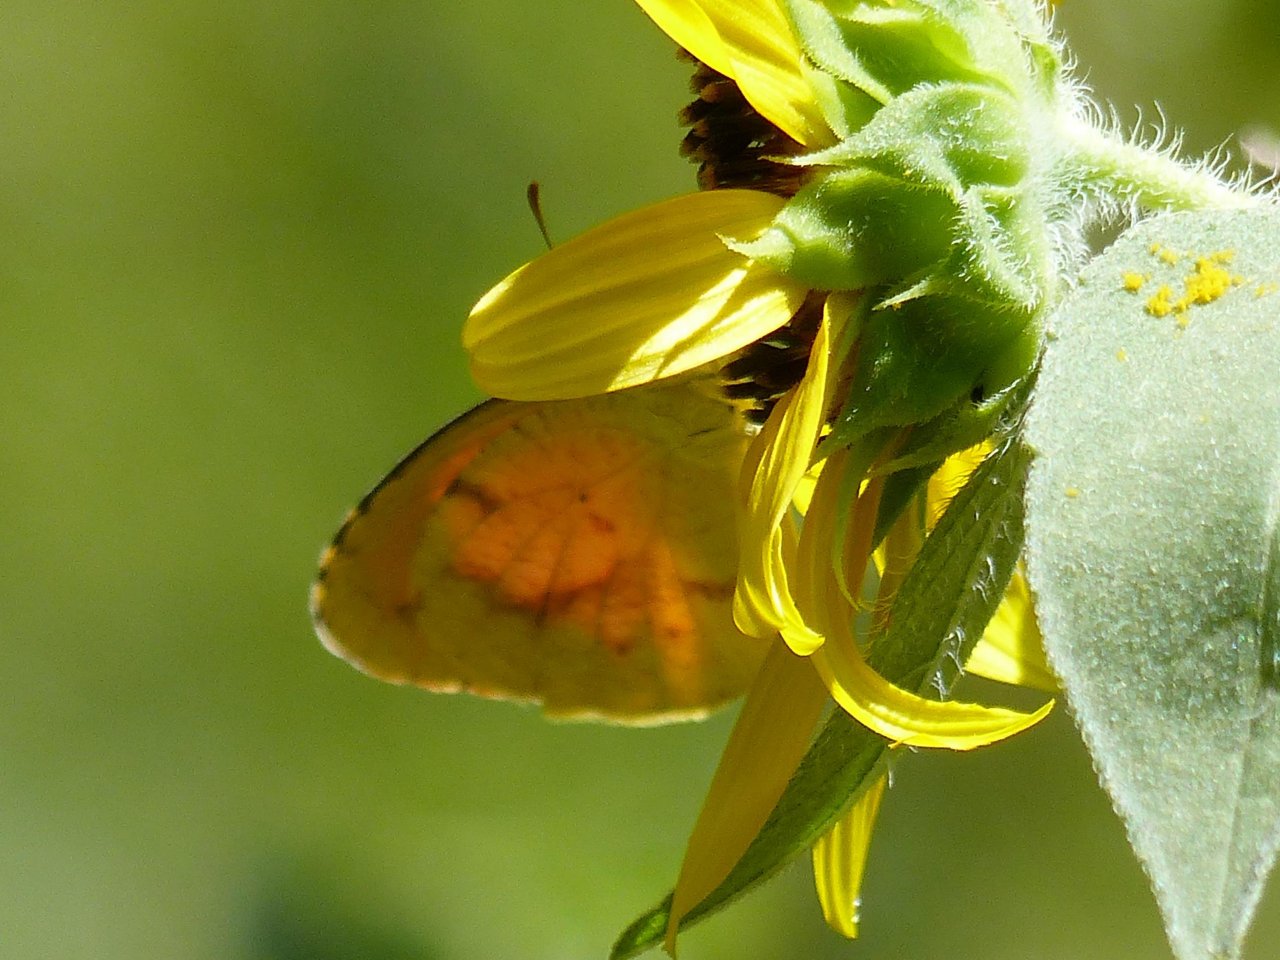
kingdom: Animalia
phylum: Arthropoda
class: Insecta
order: Lepidoptera
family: Pieridae
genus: Abaeis
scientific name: Abaeis nicippe
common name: Sleepy Orange
